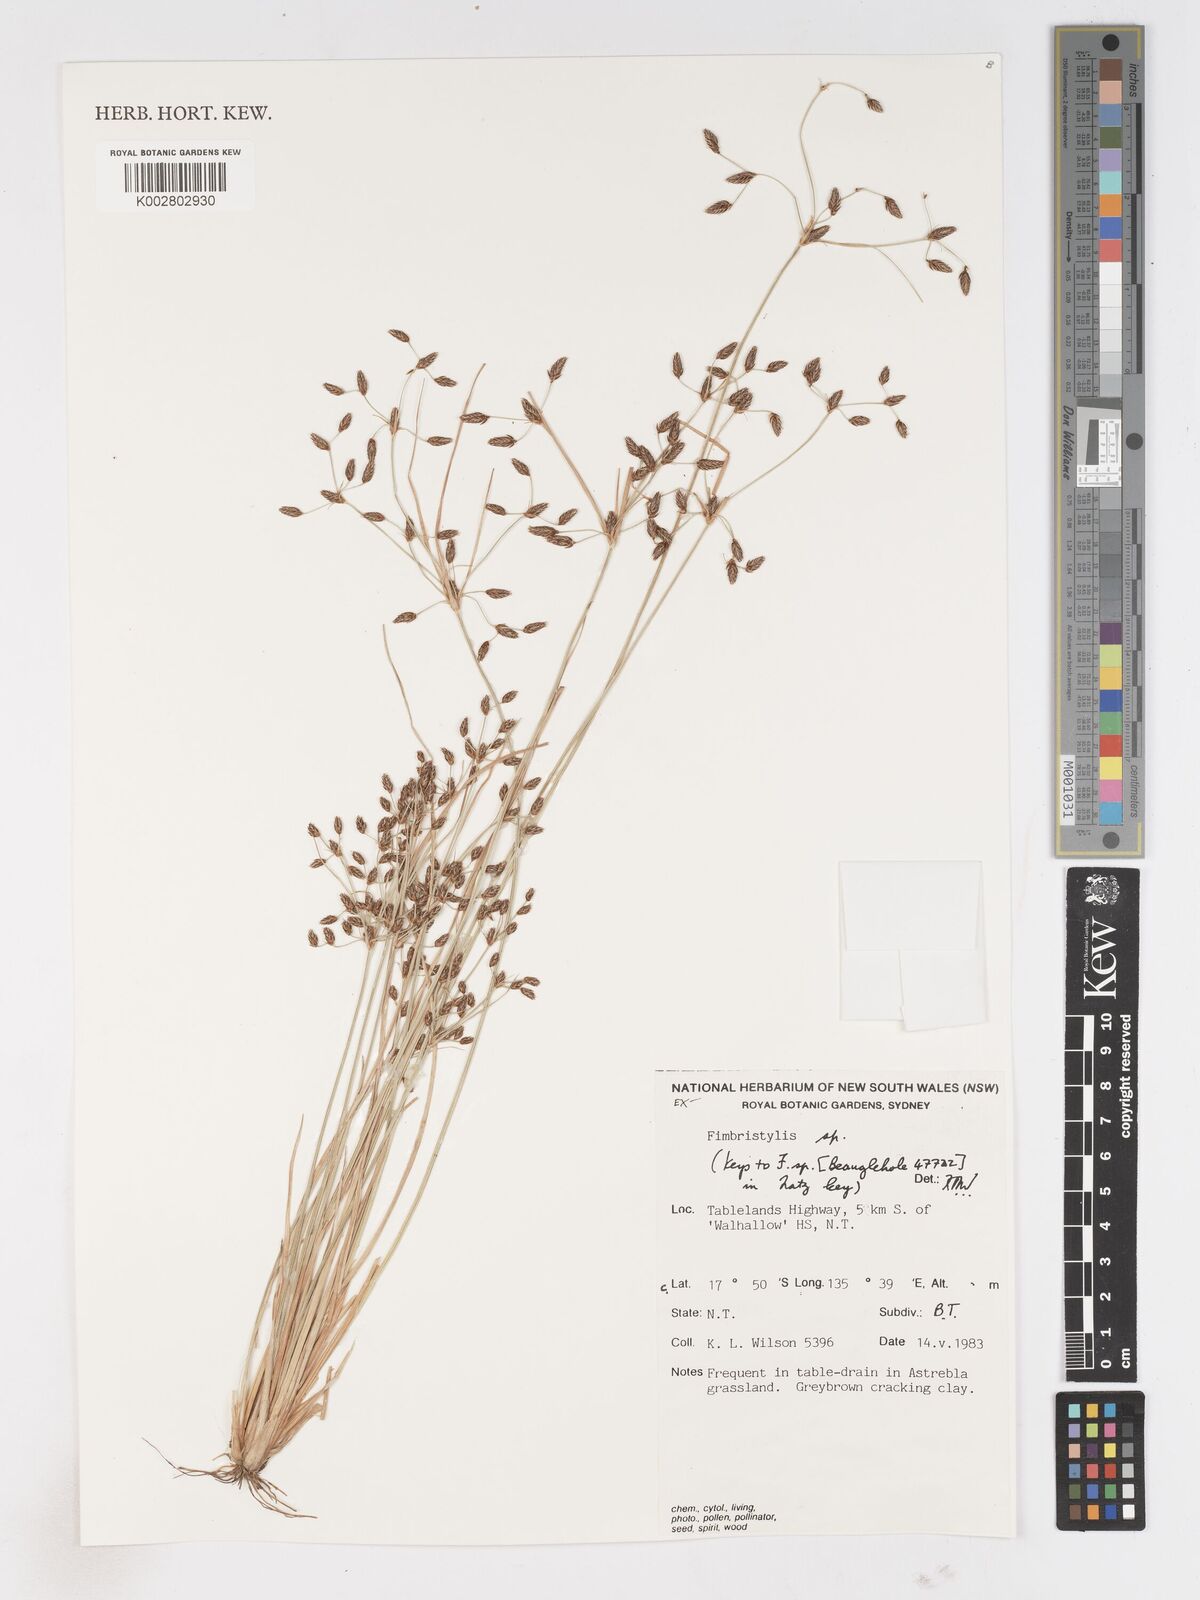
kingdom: Plantae
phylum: Tracheophyta
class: Liliopsida
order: Poales
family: Cyperaceae
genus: Fimbristylis
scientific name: Fimbristylis
